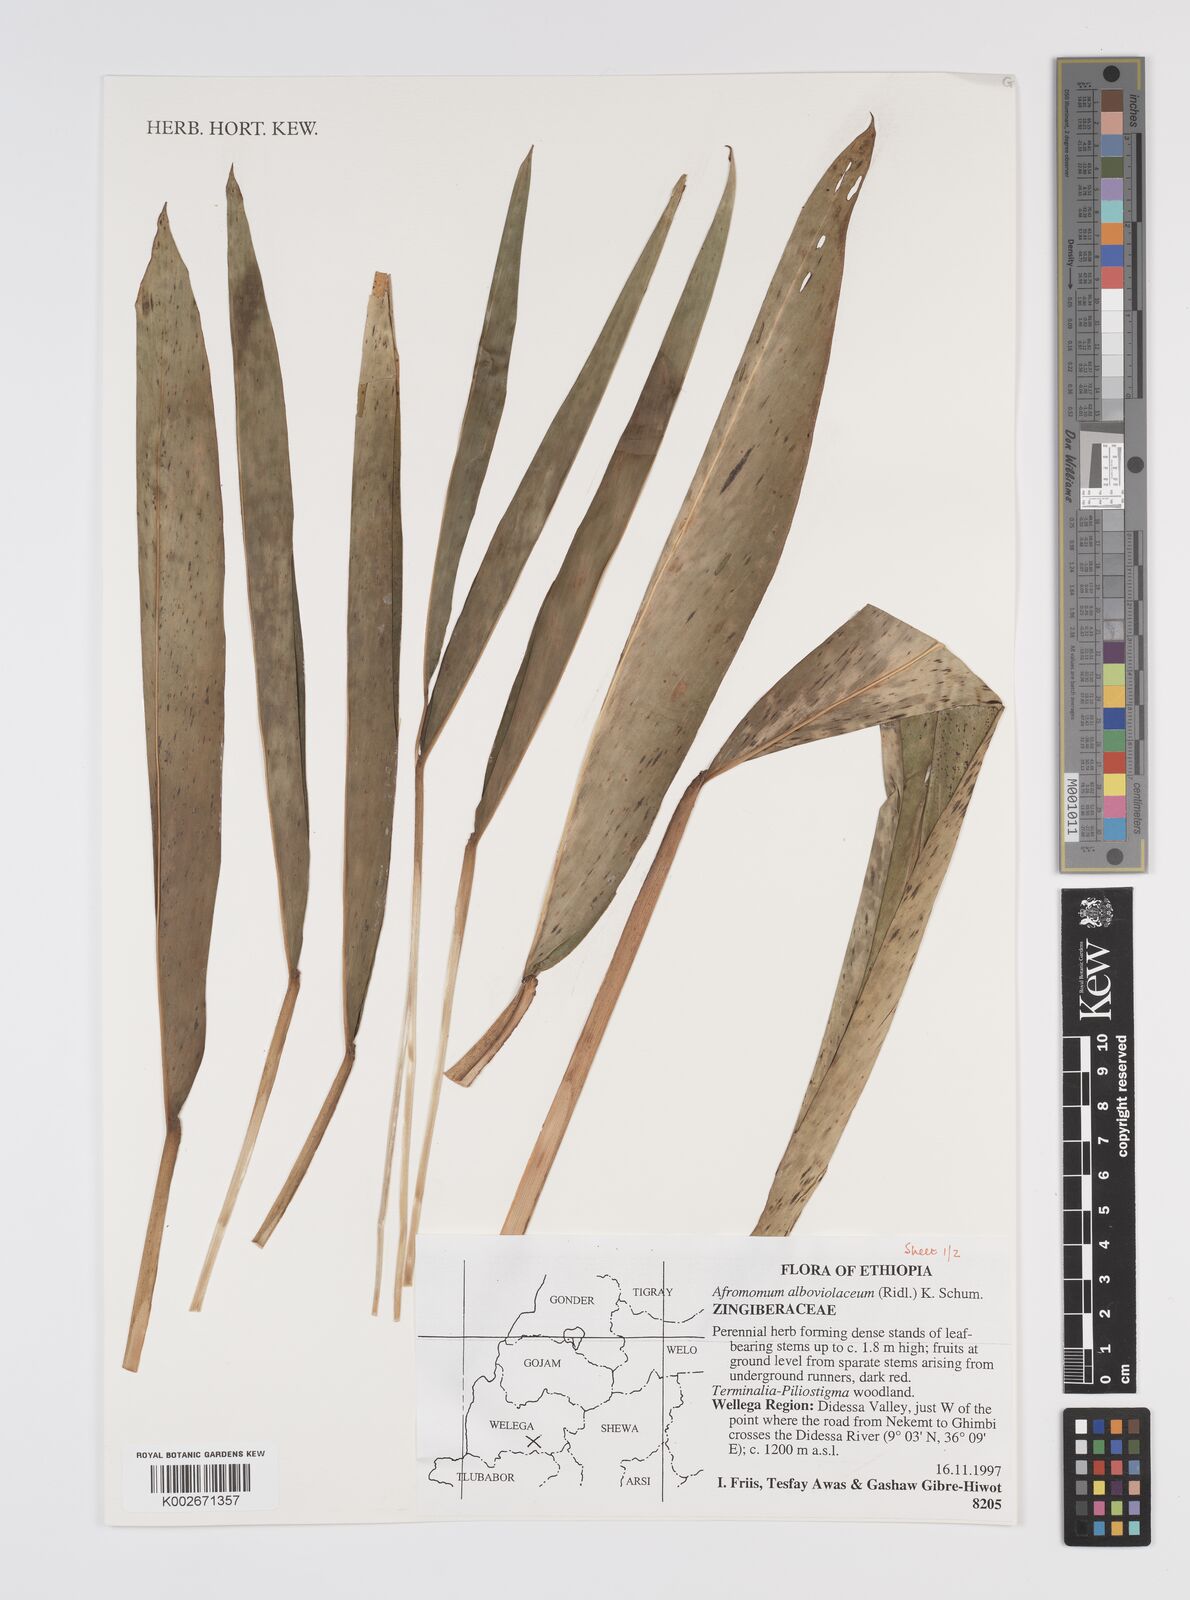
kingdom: Plantae
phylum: Tracheophyta
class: Liliopsida
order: Zingiberales
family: Zingiberaceae
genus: Aframomum
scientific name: Aframomum alboviolaceum
